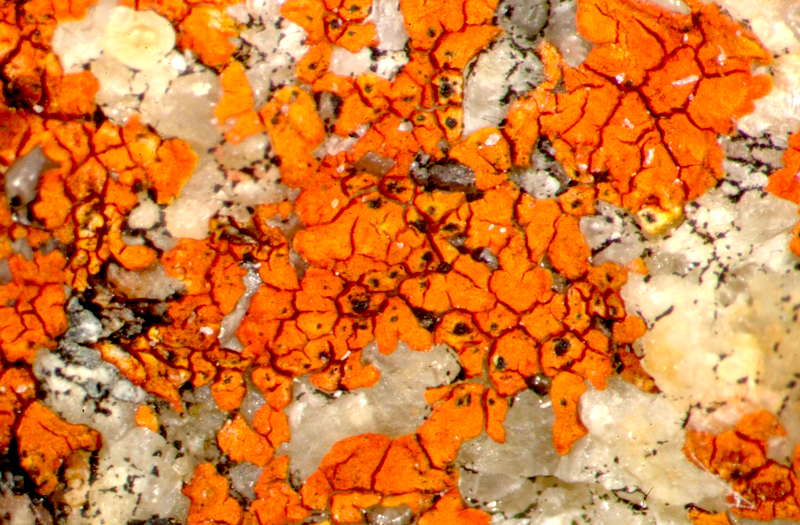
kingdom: Fungi
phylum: Ascomycota
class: Lecanoromycetes
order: Teloschistales
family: Teloschistaceae
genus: Neobrownliella
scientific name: Neobrownliella cinnabarina
